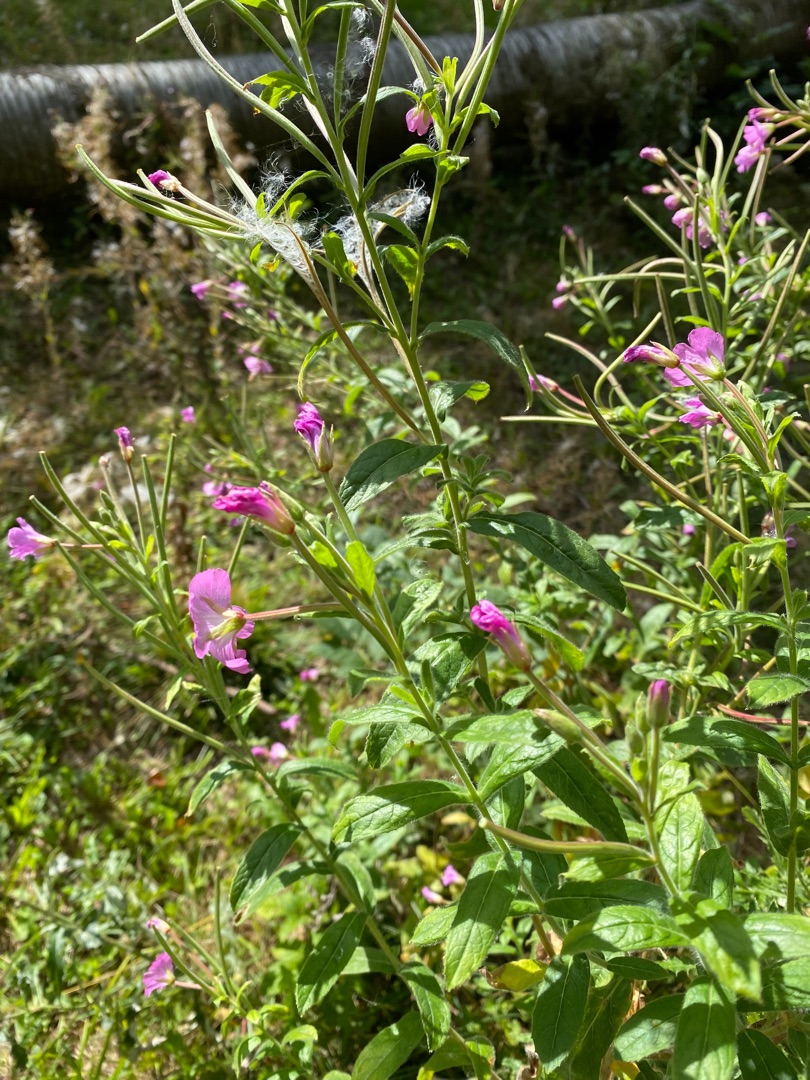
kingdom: Plantae
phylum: Tracheophyta
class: Magnoliopsida
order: Myrtales
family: Onagraceae
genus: Epilobium
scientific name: Epilobium hirsutum
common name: Lådden dueurt
